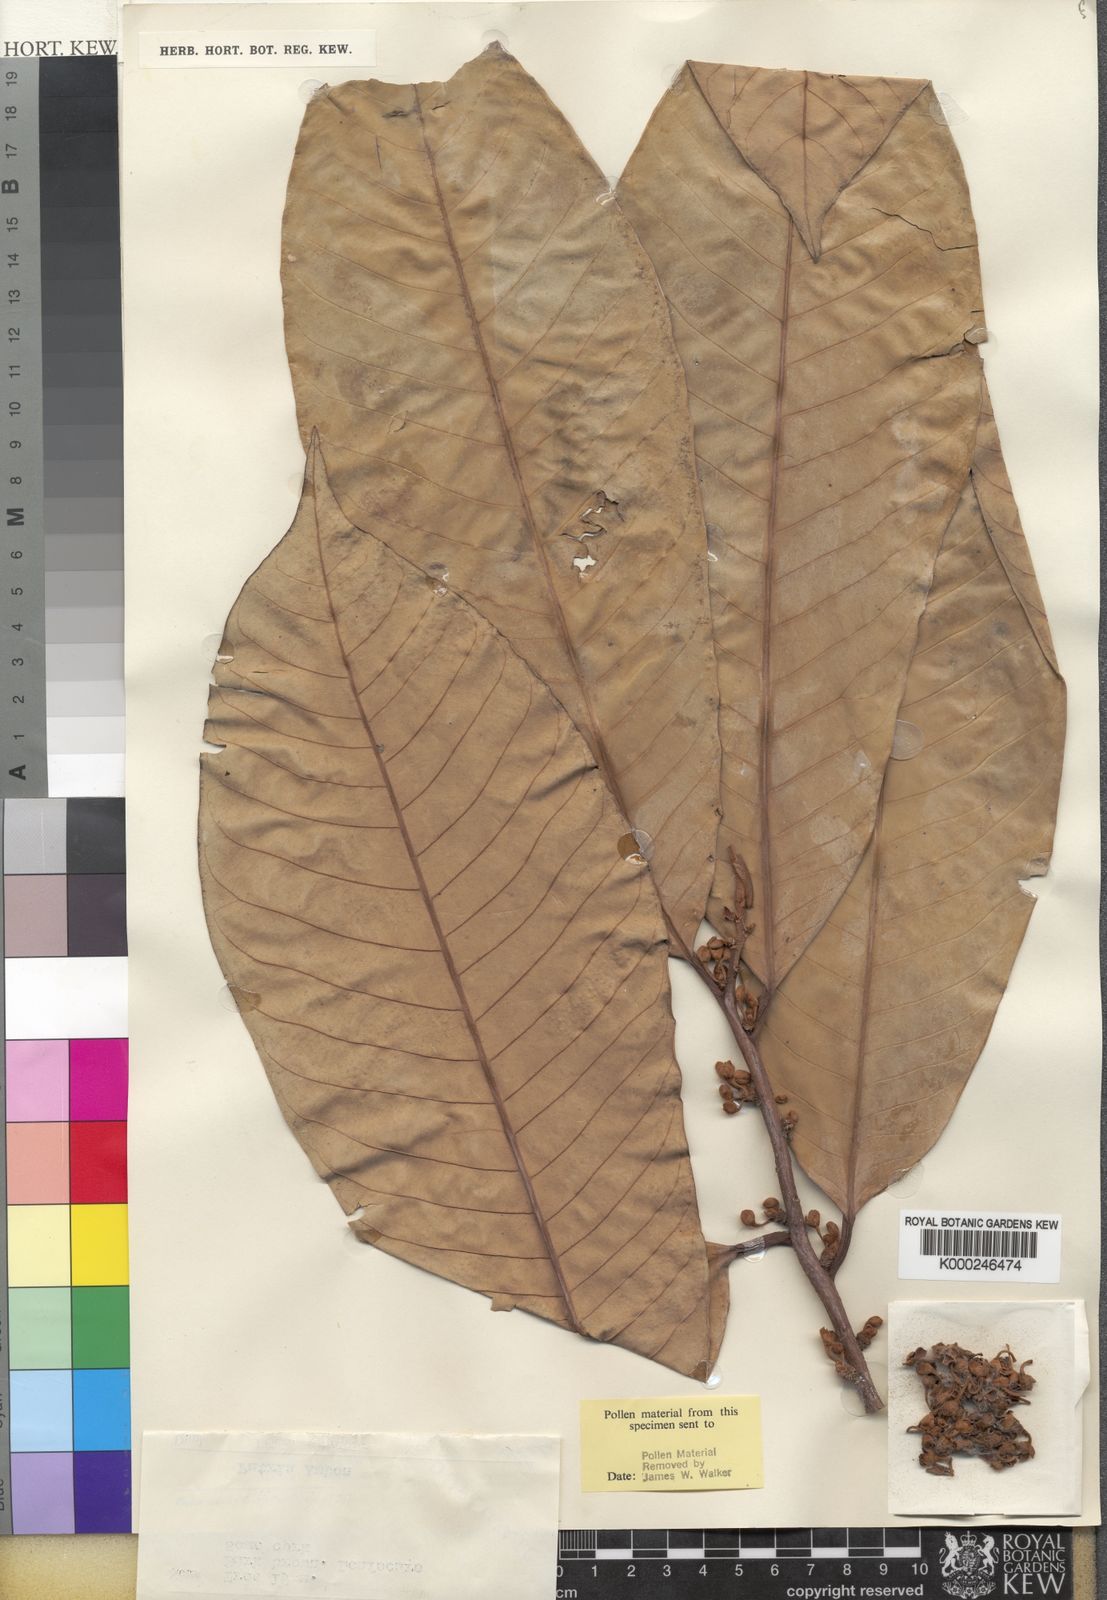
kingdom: Plantae
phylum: Tracheophyta
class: Magnoliopsida
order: Magnoliales
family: Myristicaceae
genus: Myristica
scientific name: Myristica fatua
